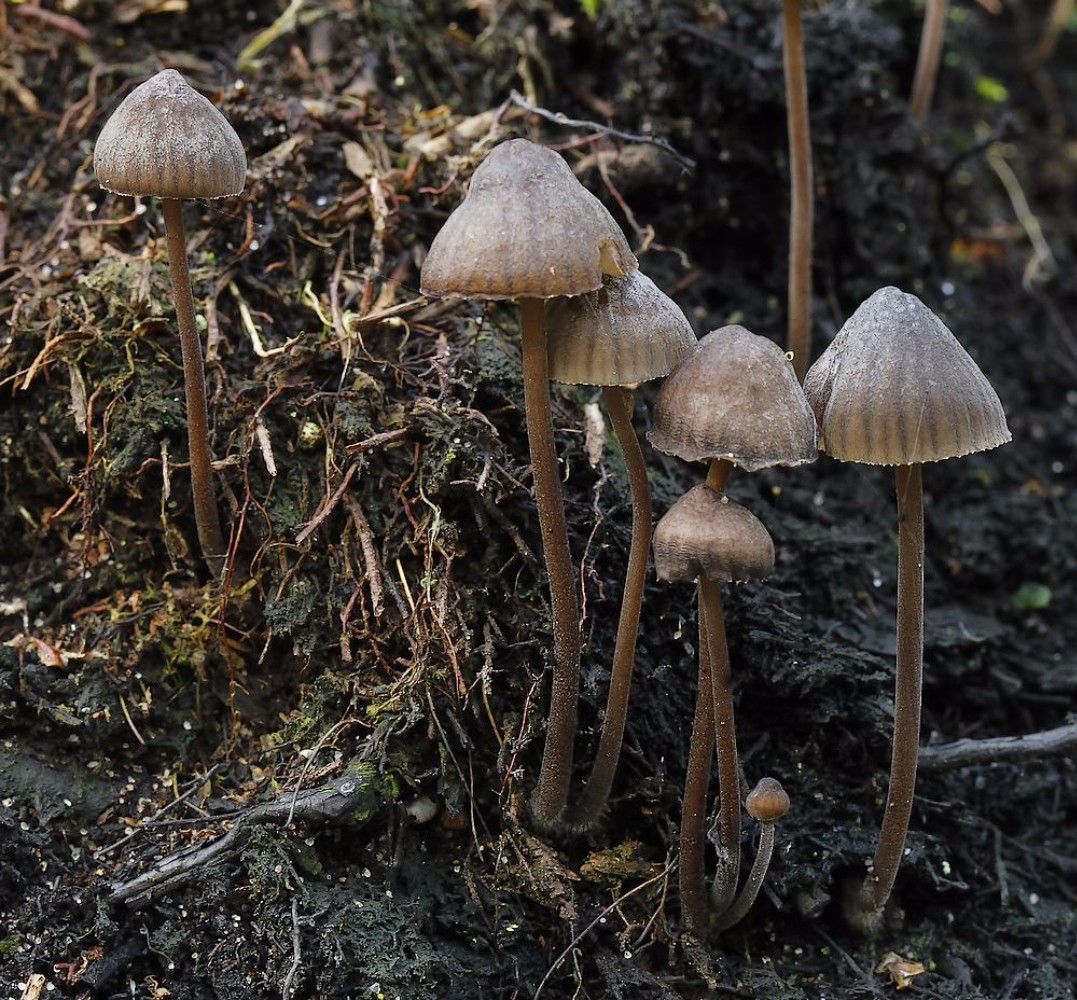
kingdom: Fungi
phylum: Basidiomycota
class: Agaricomycetes
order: Agaricales
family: Mycenaceae
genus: Mycena
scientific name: Mycena galopus
